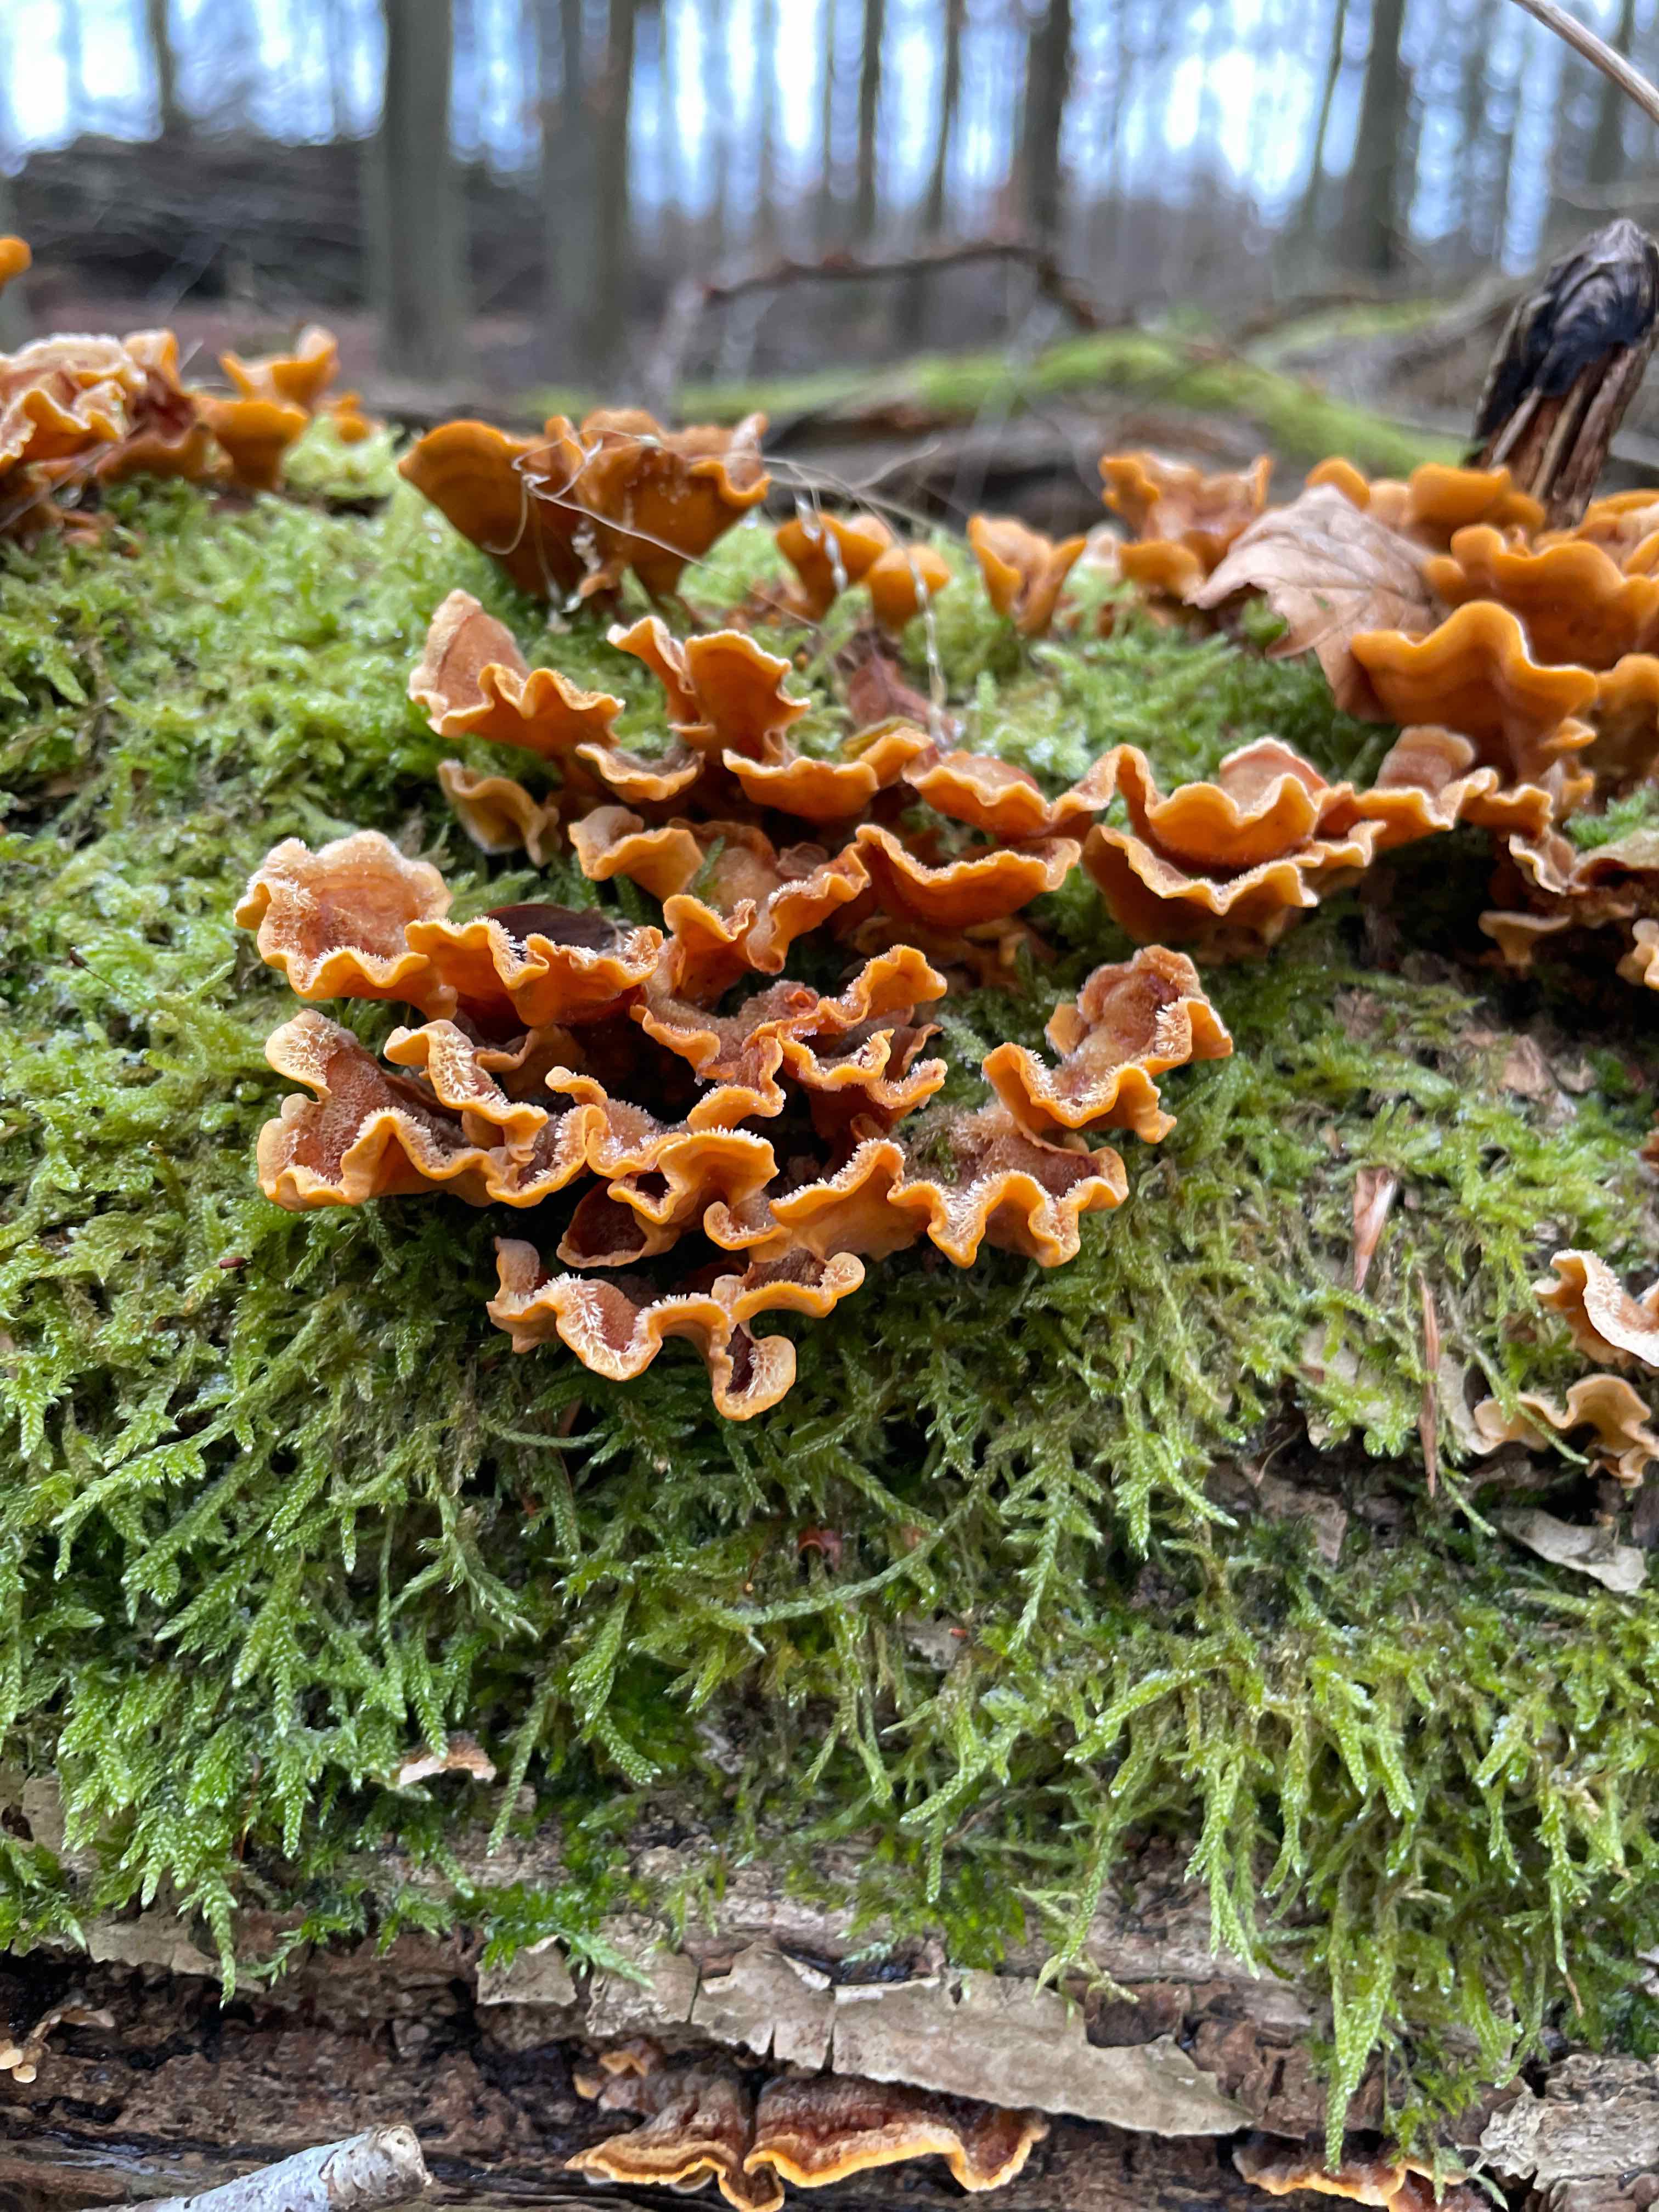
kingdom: Fungi
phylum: Basidiomycota
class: Agaricomycetes
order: Russulales
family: Stereaceae
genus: Stereum
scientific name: Stereum hirsutum
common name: håret lædersvamp
